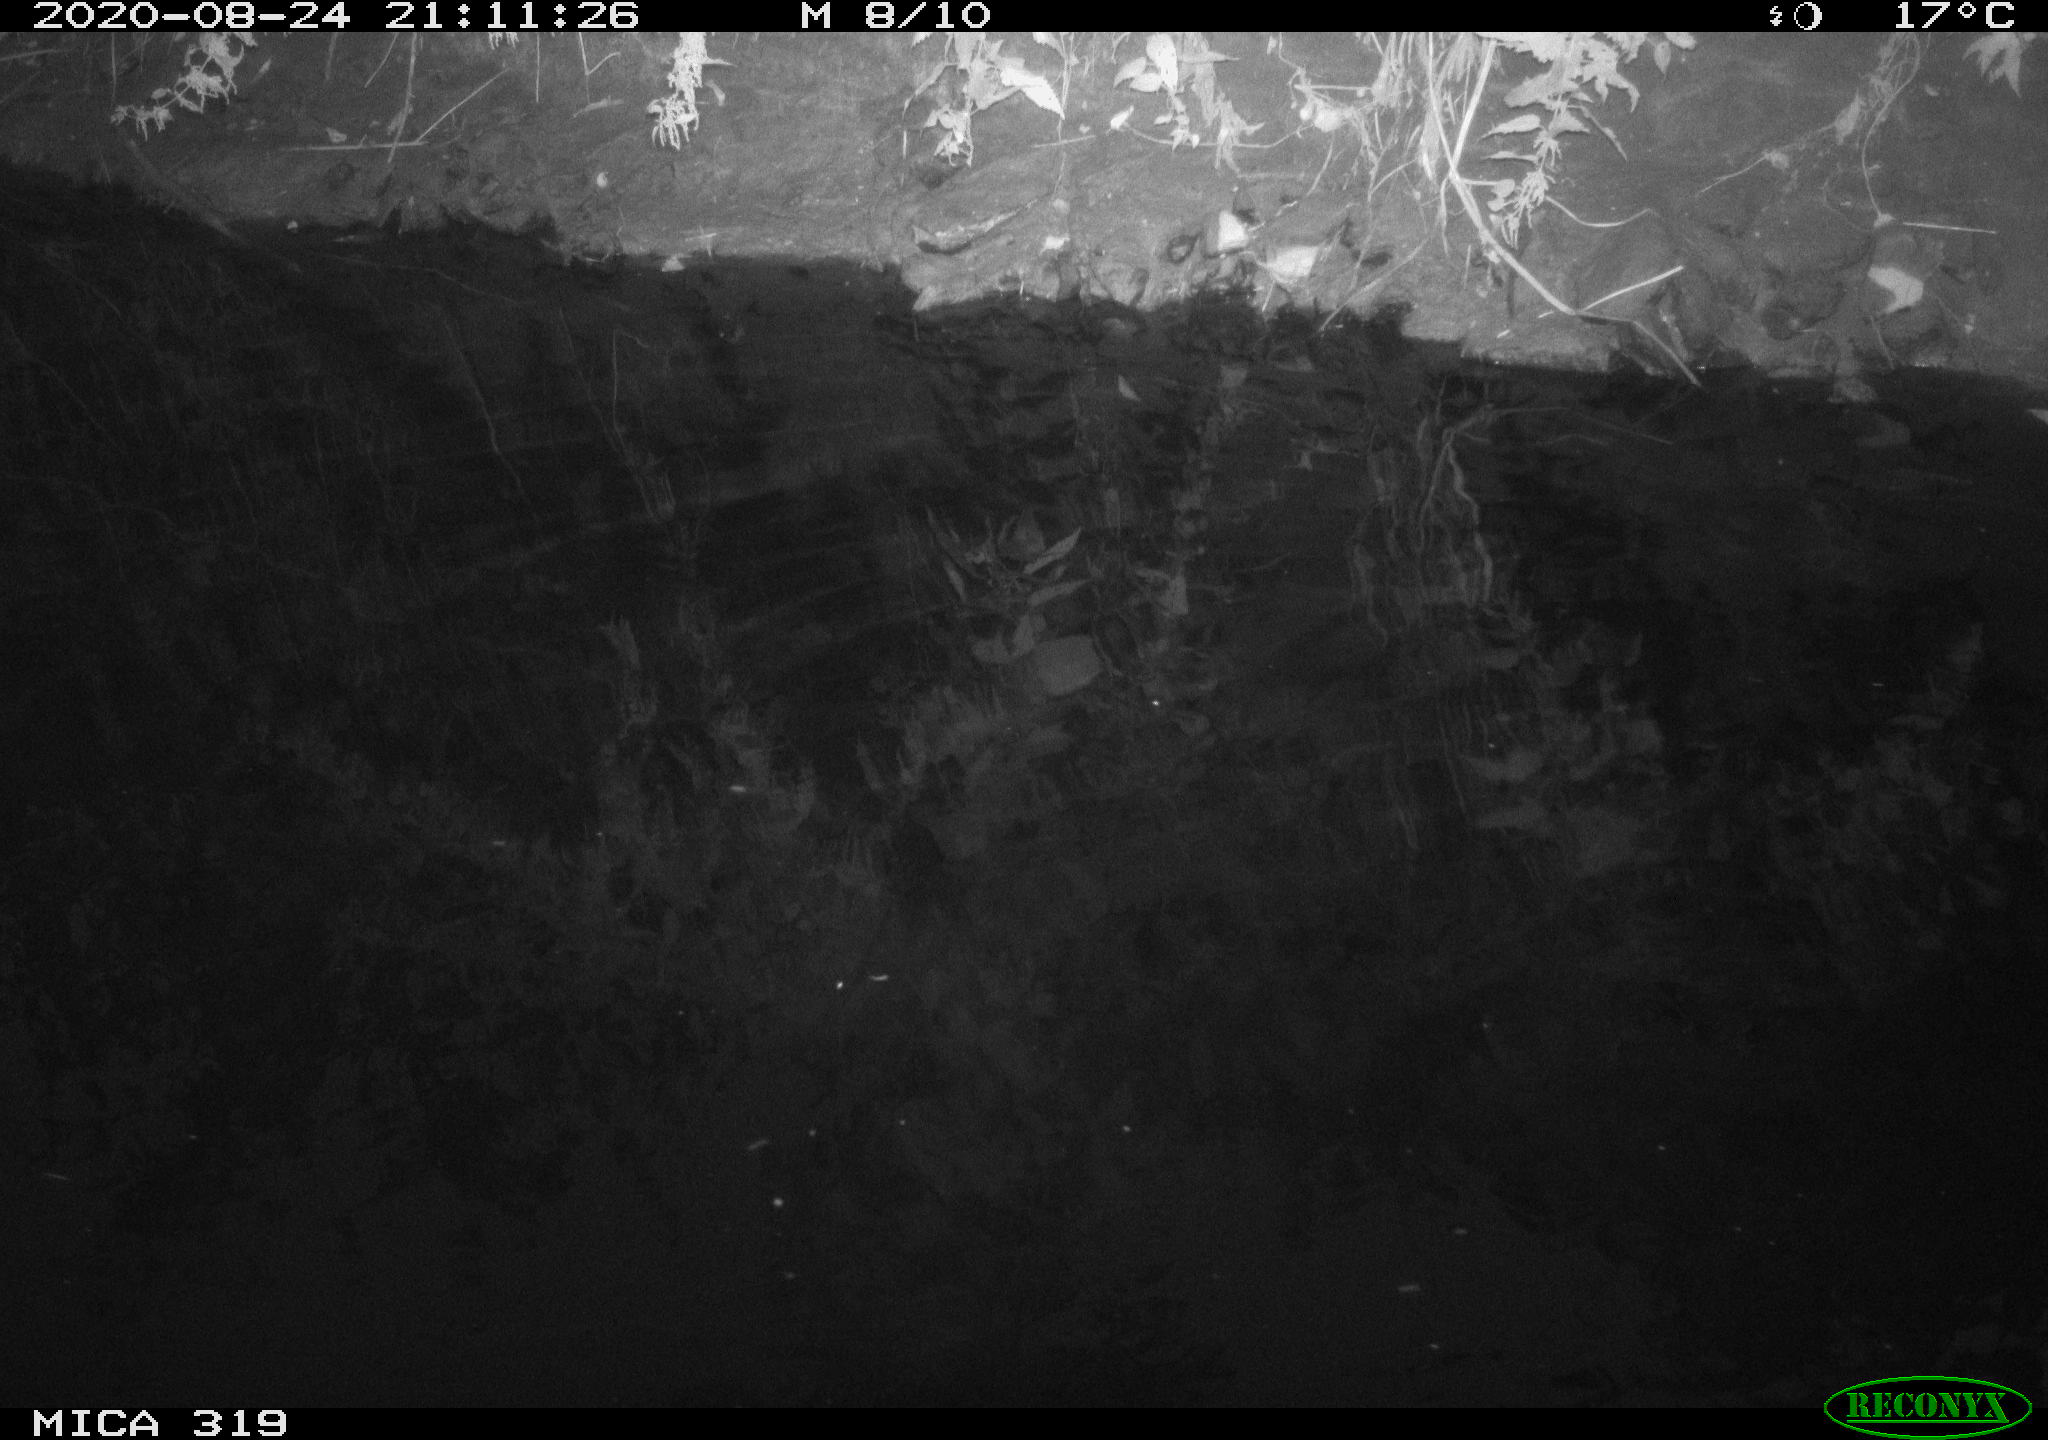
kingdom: Animalia
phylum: Chordata
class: Aves
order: Anseriformes
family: Anatidae
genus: Anas
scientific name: Anas platyrhynchos
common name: Mallard
